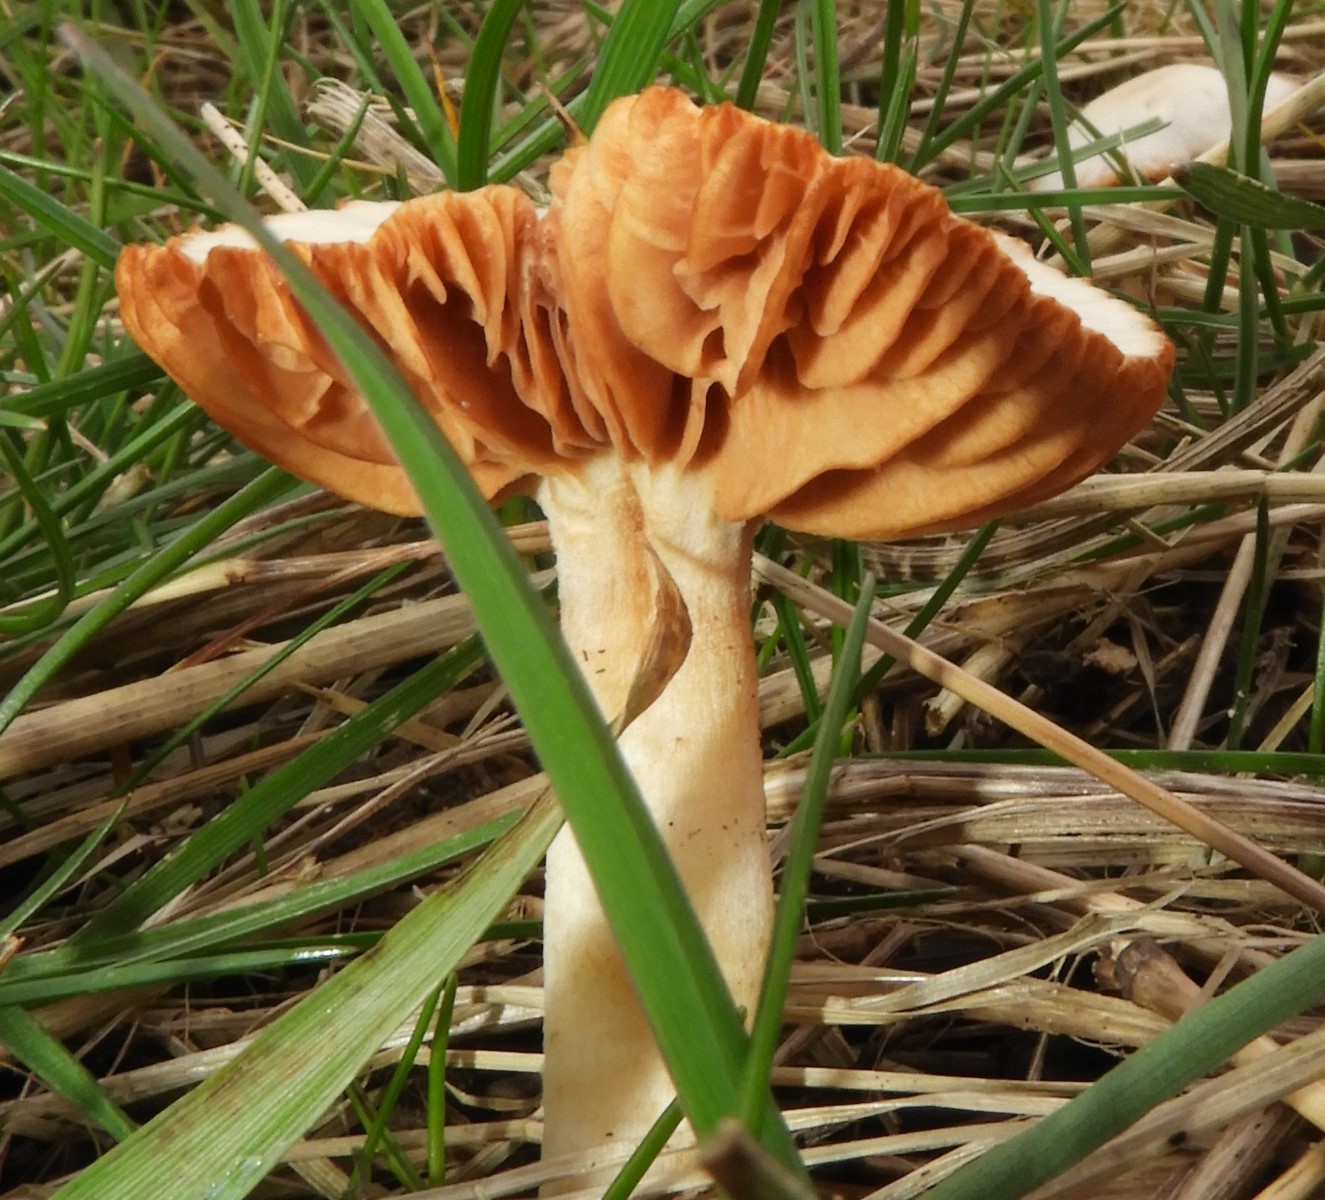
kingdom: Fungi
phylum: Basidiomycota
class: Agaricomycetes
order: Agaricales
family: Tubariaceae
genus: Tubaria
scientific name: Tubaria furfuracea
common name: kliddet fnughat
